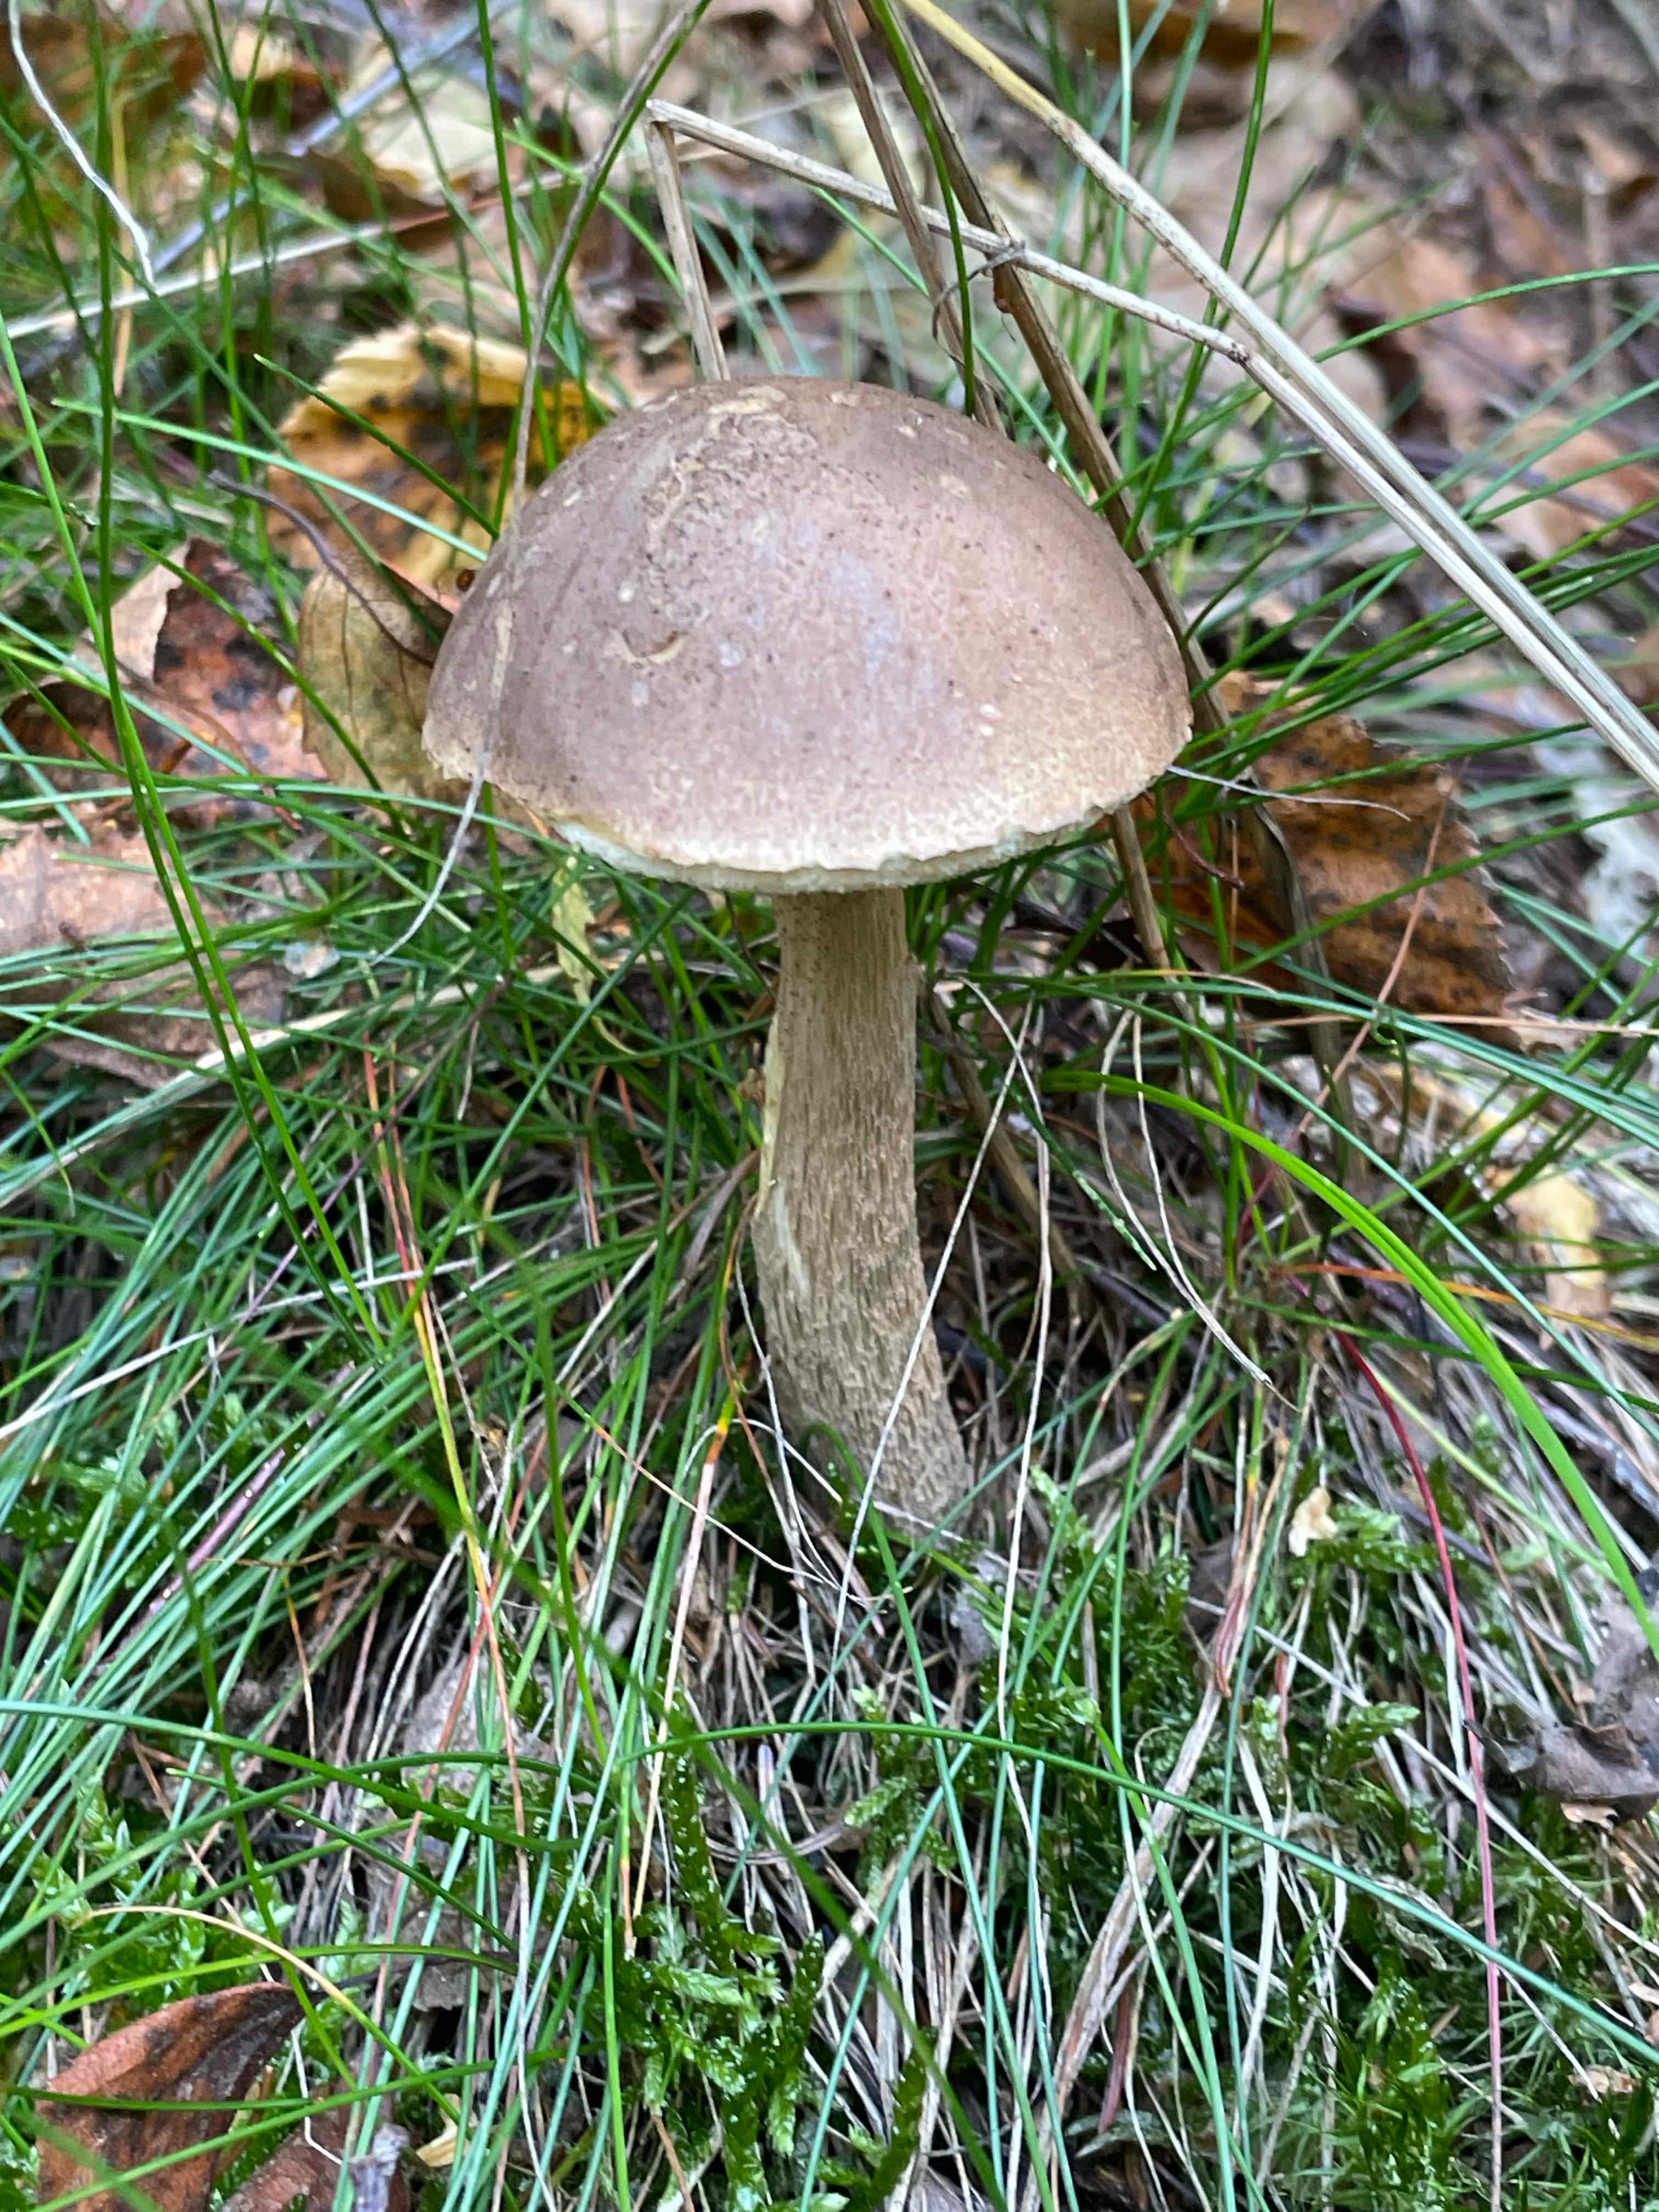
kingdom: Fungi
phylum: Basidiomycota
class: Agaricomycetes
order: Boletales
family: Boletaceae
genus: Leccinum
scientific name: Leccinum scabrum
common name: brun skælrørhat
